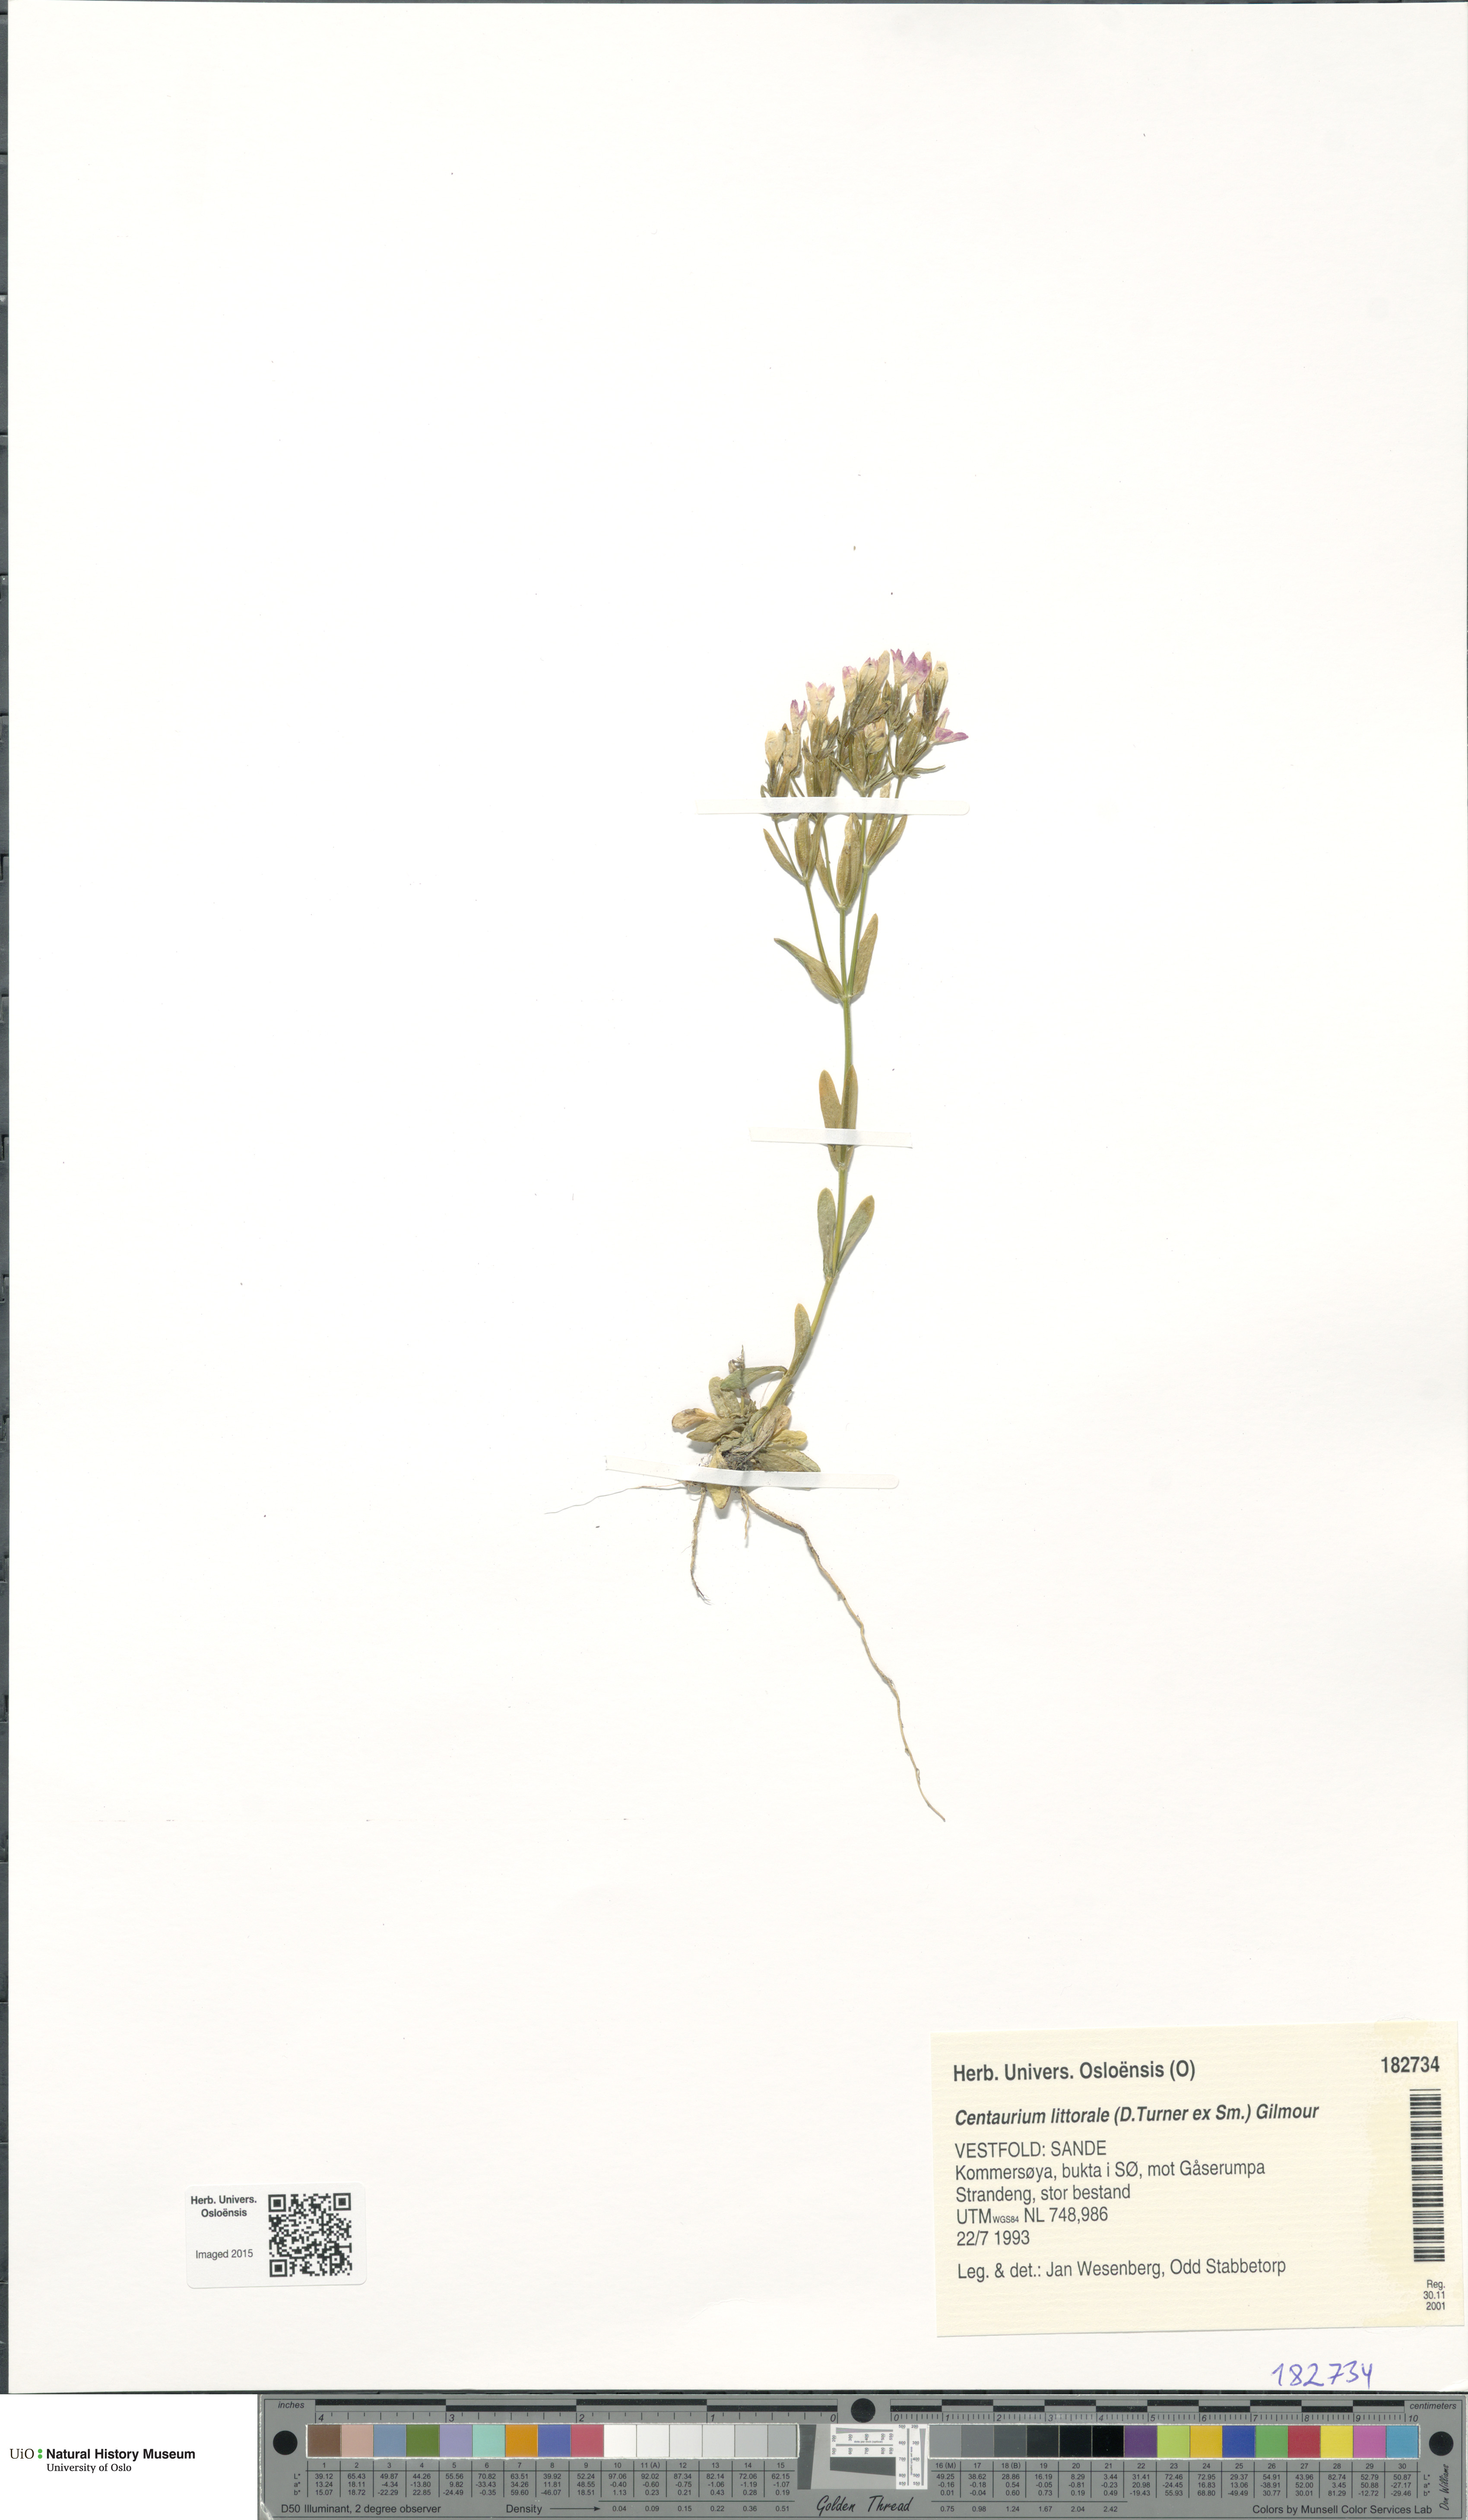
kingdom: Plantae
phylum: Tracheophyta
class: Magnoliopsida
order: Gentianales
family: Gentianaceae
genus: Centaurium
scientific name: Centaurium littorale
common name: Seaside centaury
